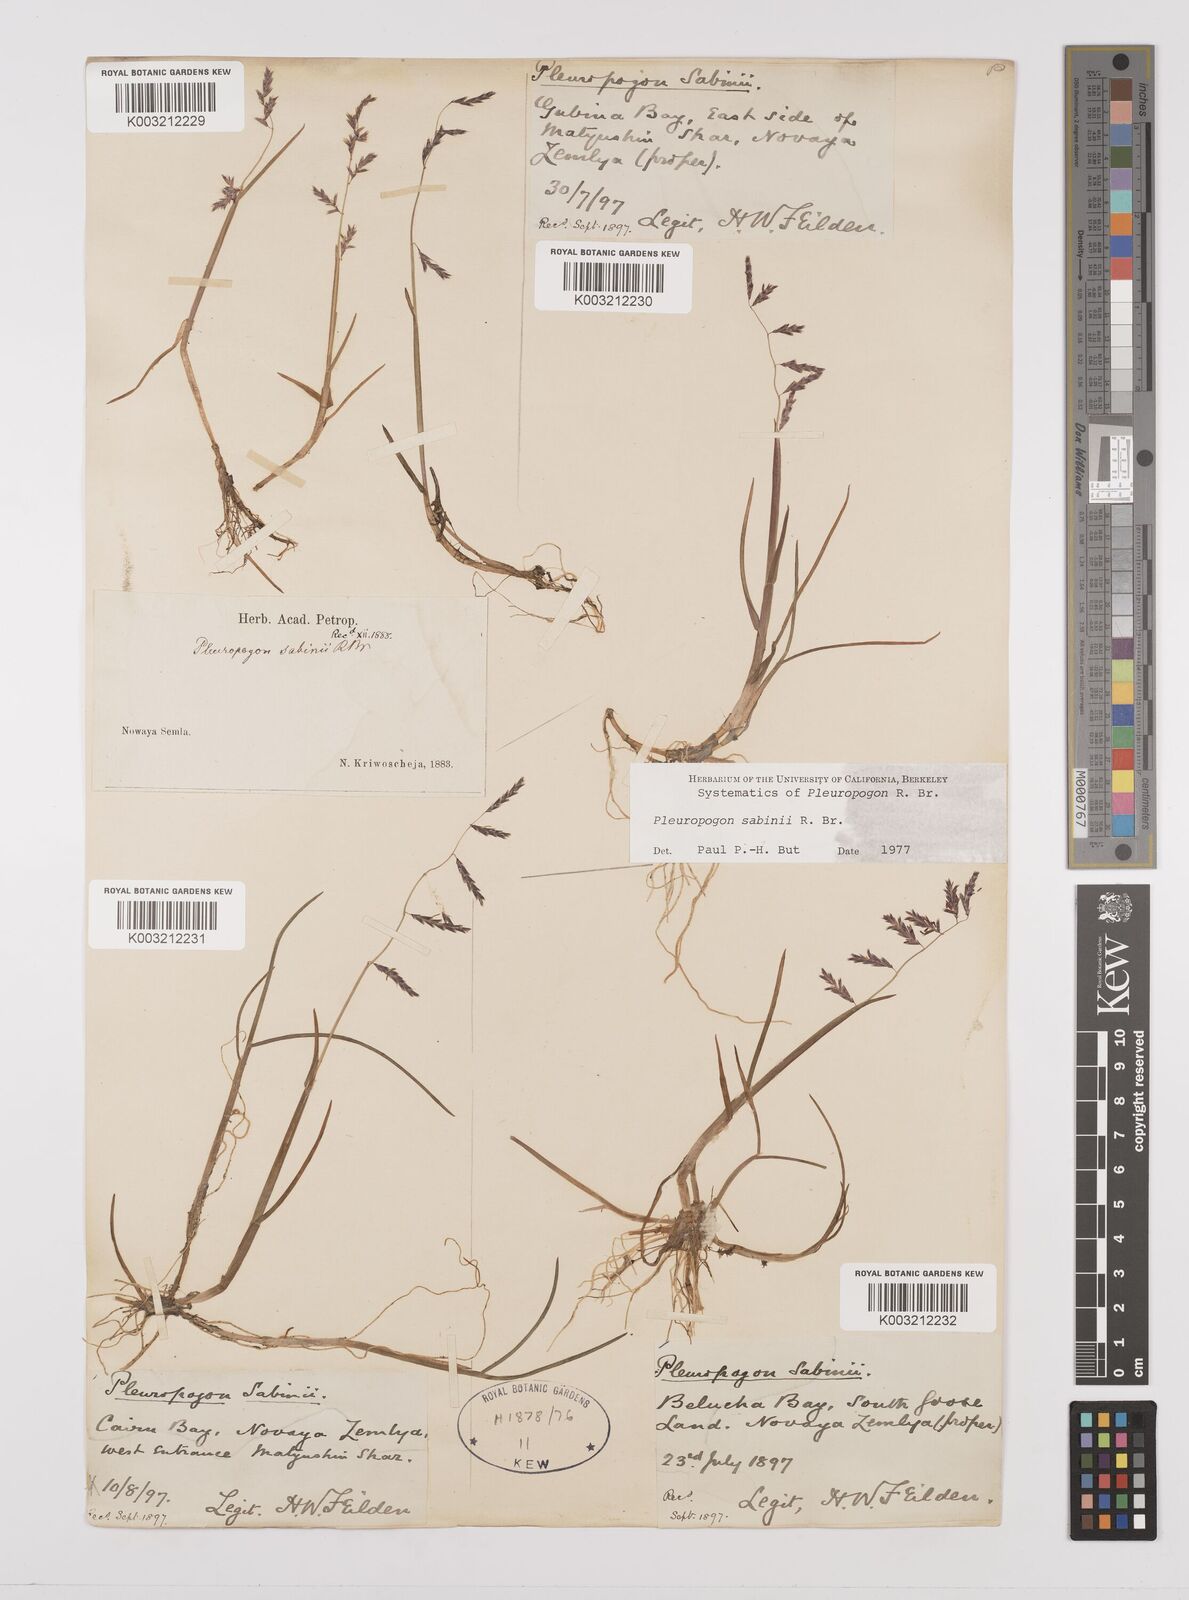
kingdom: Plantae
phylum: Tracheophyta
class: Liliopsida
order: Poales
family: Poaceae
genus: Pleuropogon
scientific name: Pleuropogon sabinei
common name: Sabine's false semaphoregrass
